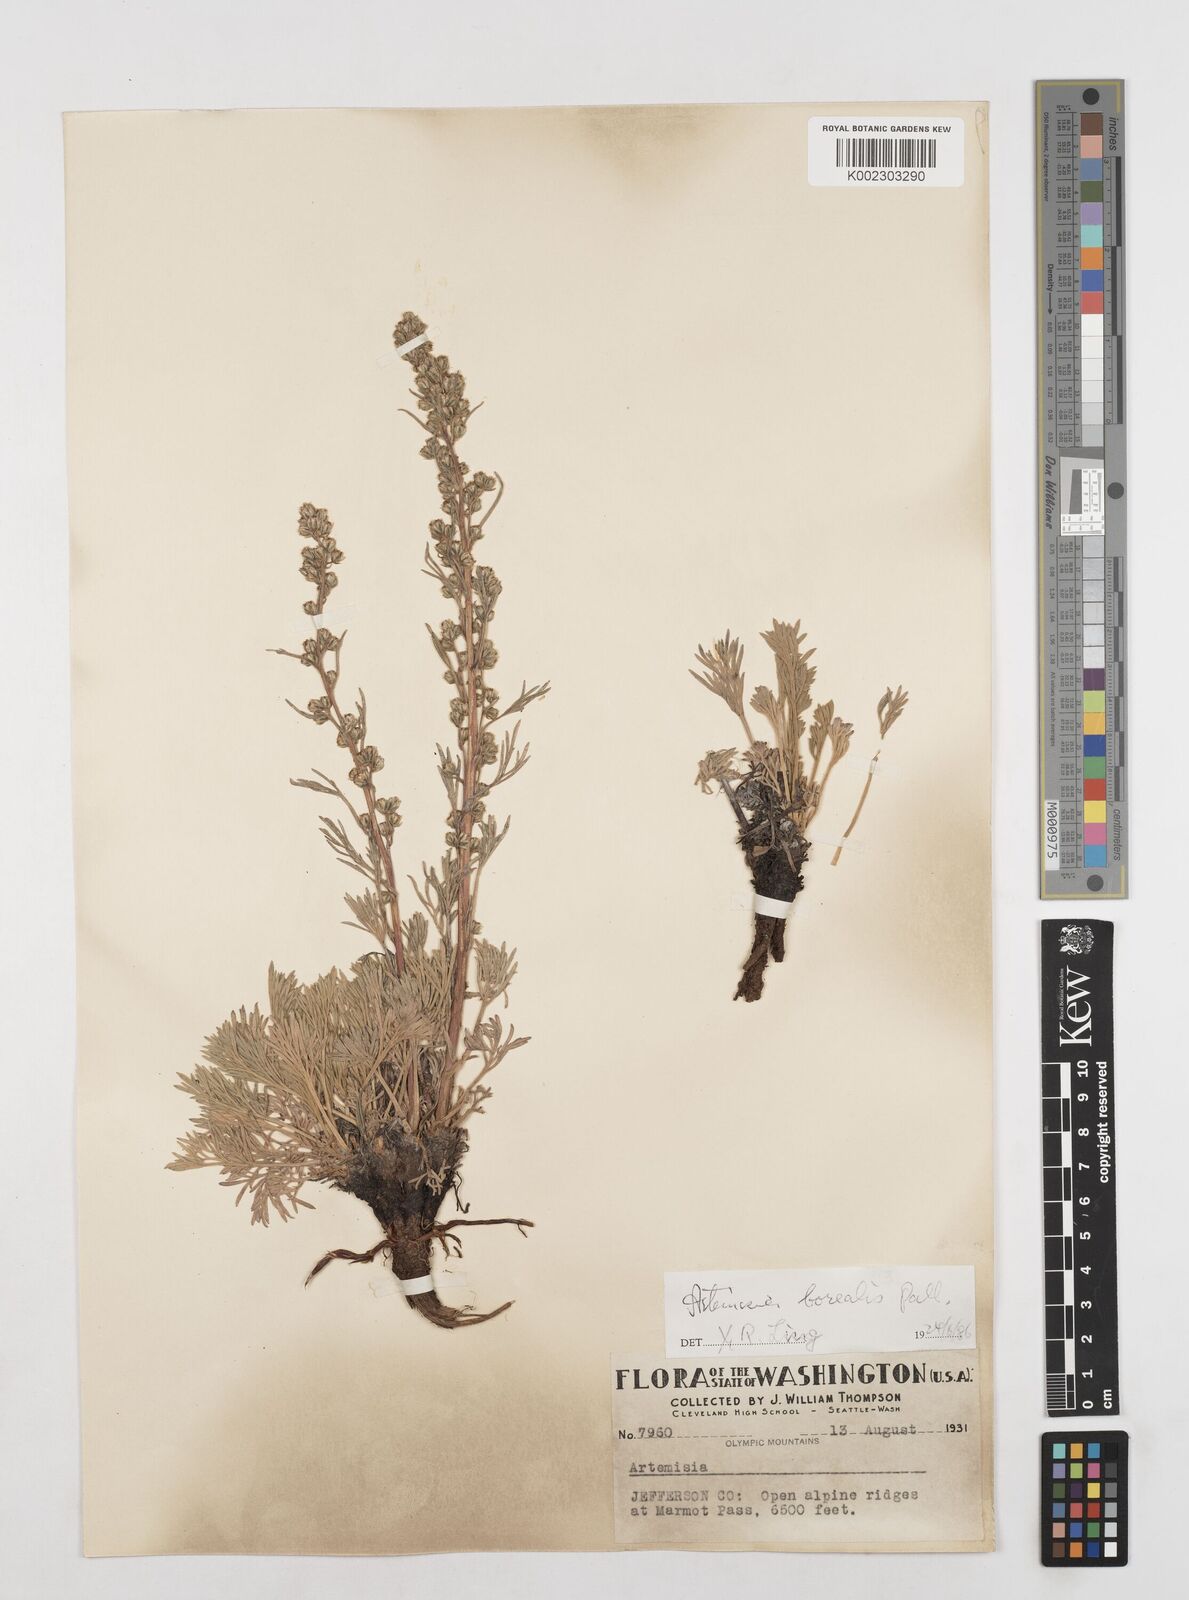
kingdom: Plantae
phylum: Tracheophyta
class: Magnoliopsida
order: Asterales
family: Asteraceae
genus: Artemisia
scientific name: Artemisia borealis
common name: Boreal sage
